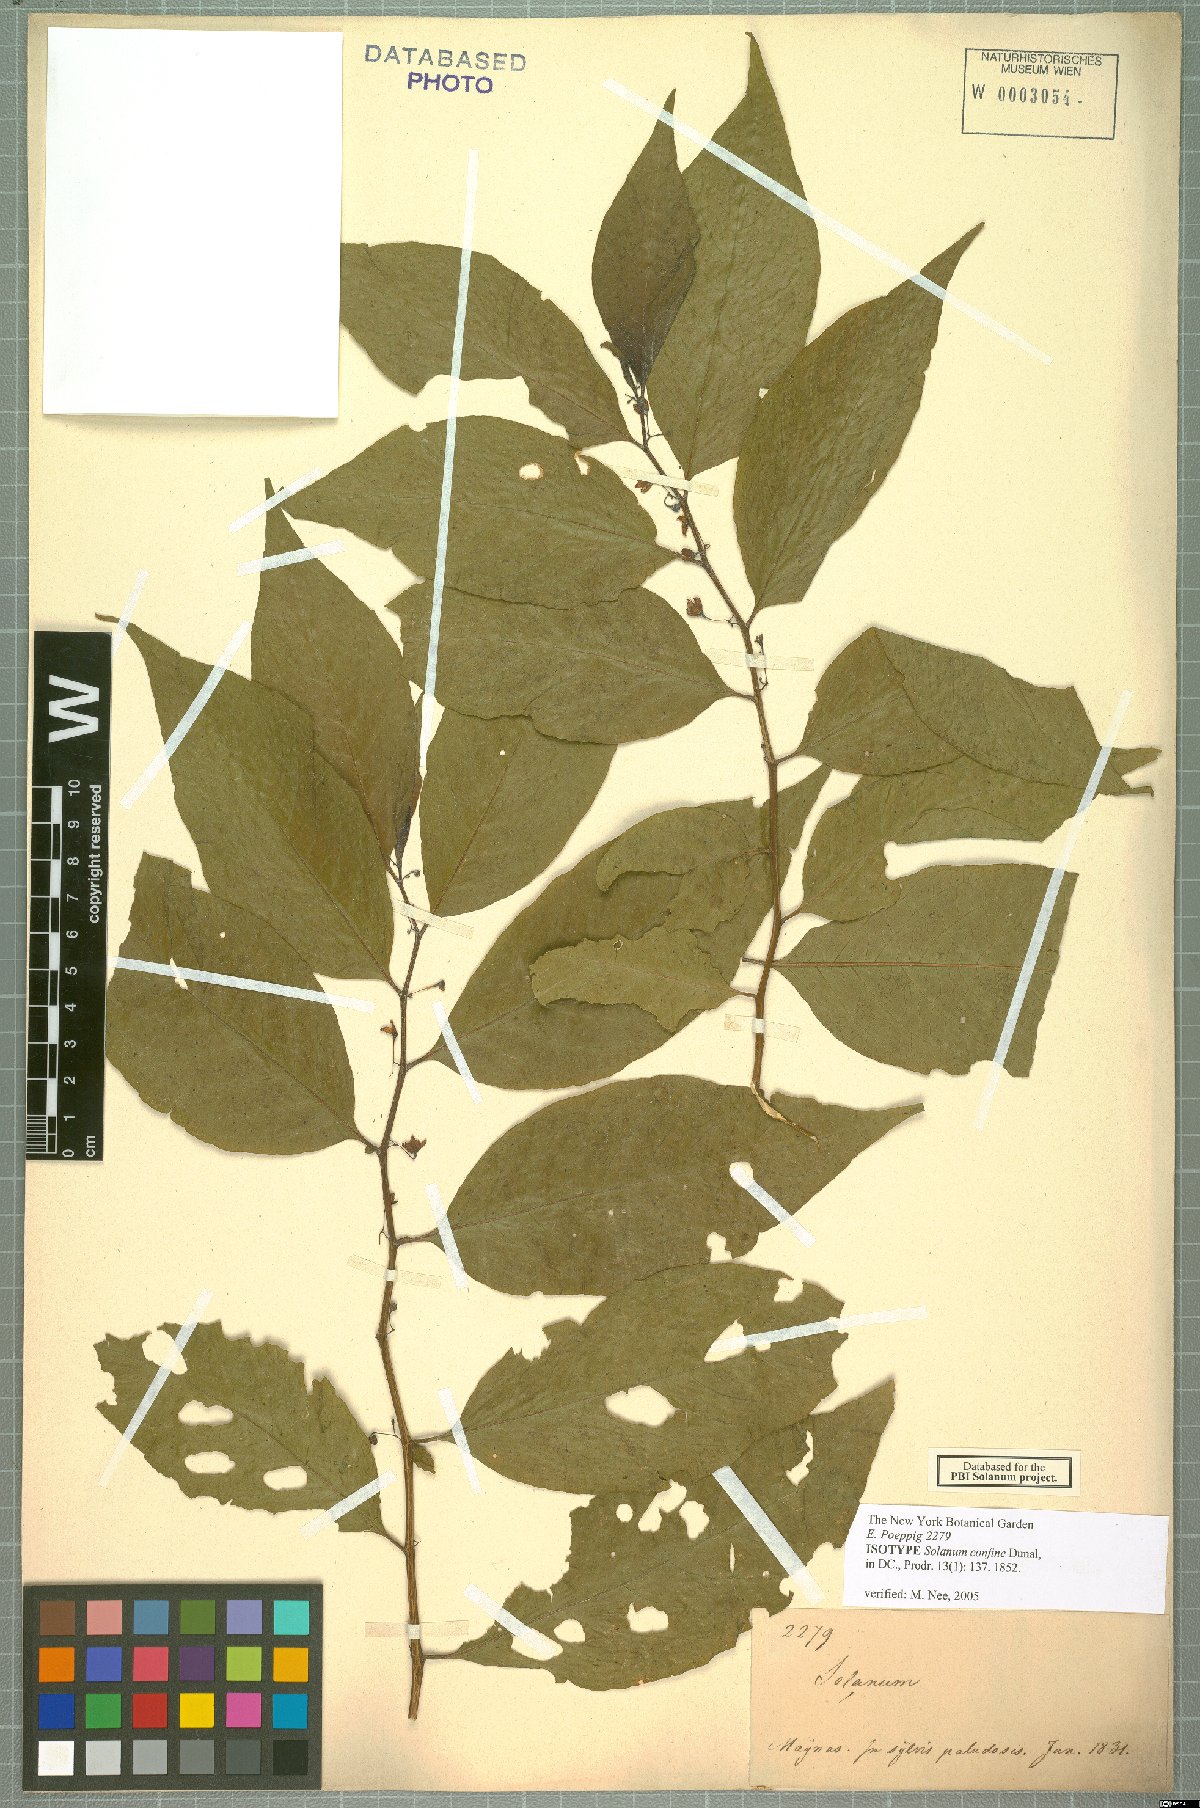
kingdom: Plantae
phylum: Tracheophyta
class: Magnoliopsida
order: Solanales
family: Solanaceae
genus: Solanum
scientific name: Solanum confine
